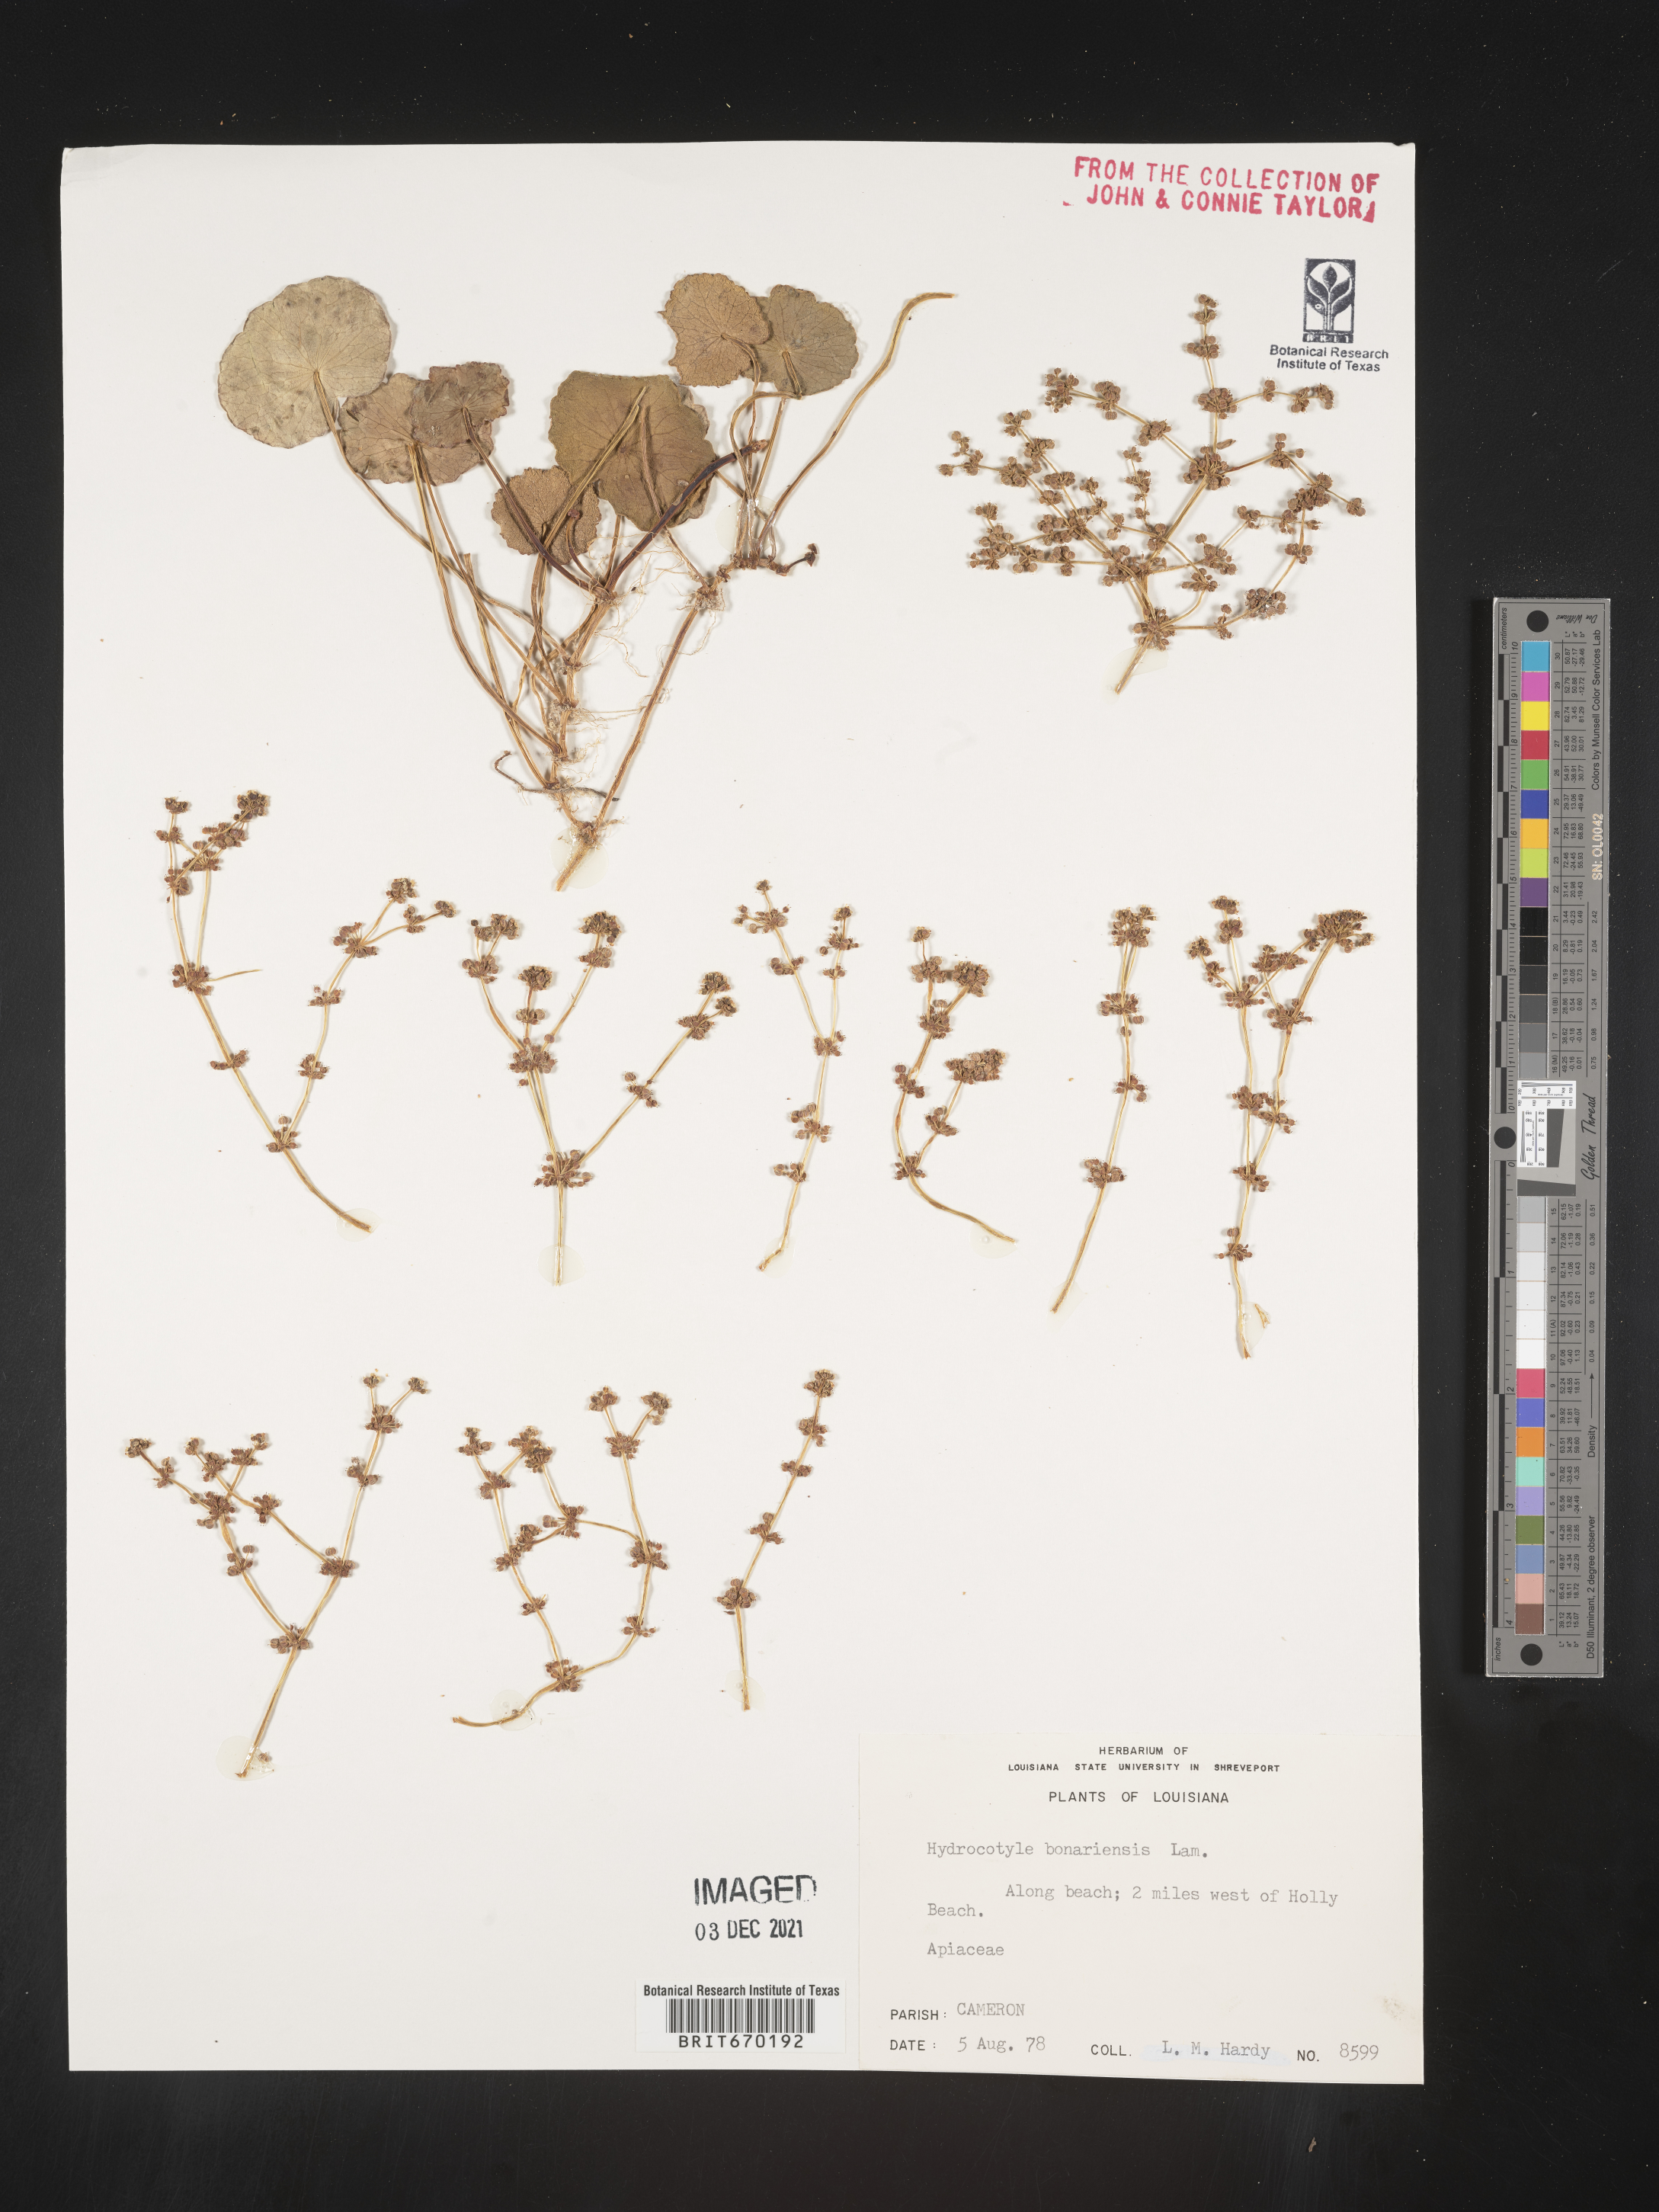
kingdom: Plantae
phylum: Tracheophyta
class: Magnoliopsida
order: Apiales
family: Araliaceae
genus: Hydrocotyle
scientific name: Hydrocotyle bonariensis
